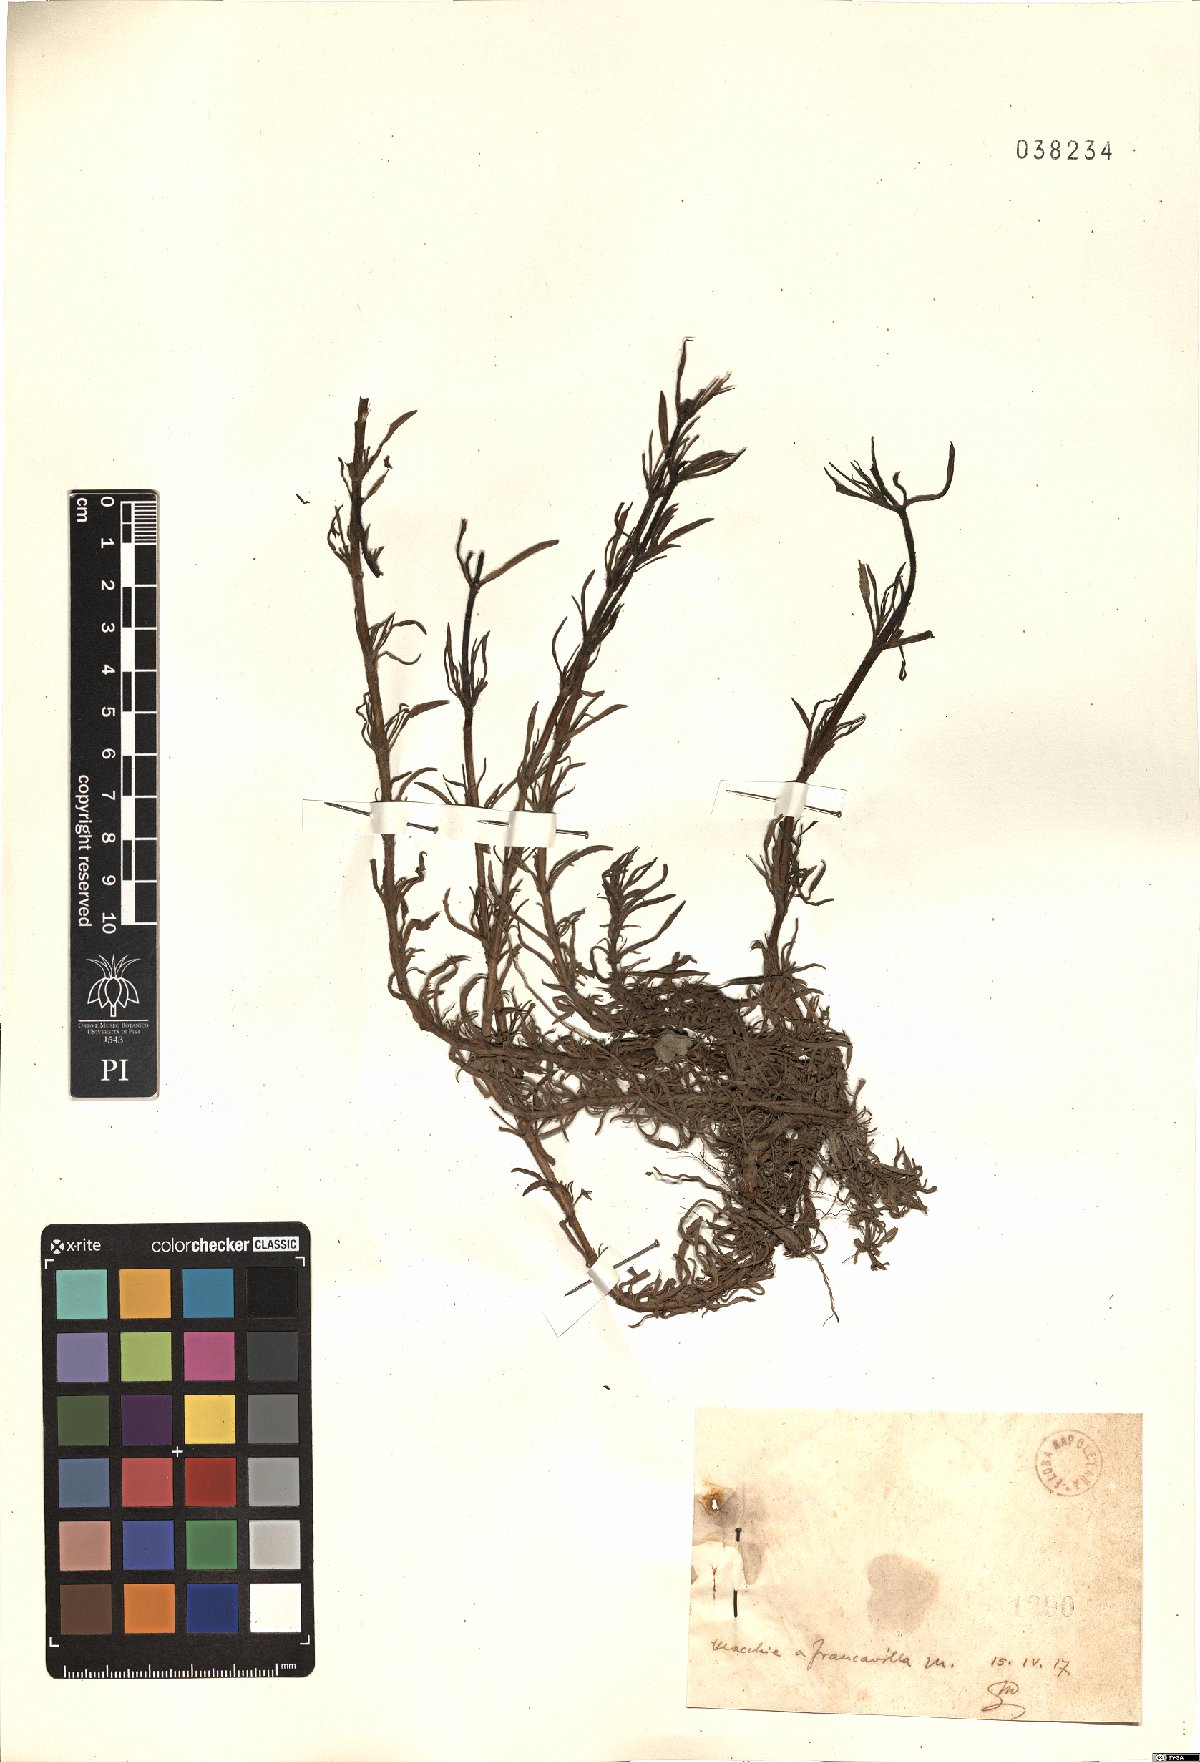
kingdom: Plantae
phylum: Tracheophyta
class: Magnoliopsida
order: Lamiales
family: Plantaginaceae
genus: Plantago
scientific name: Plantago
